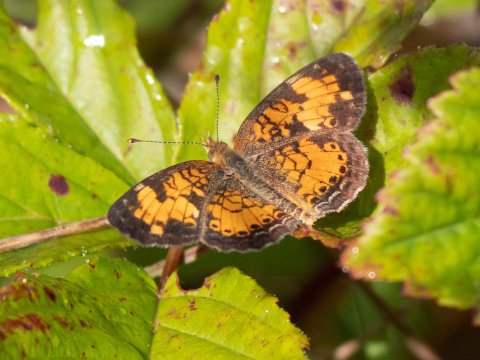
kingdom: Animalia
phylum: Arthropoda
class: Insecta
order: Lepidoptera
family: Nymphalidae
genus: Phyciodes
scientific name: Phyciodes
